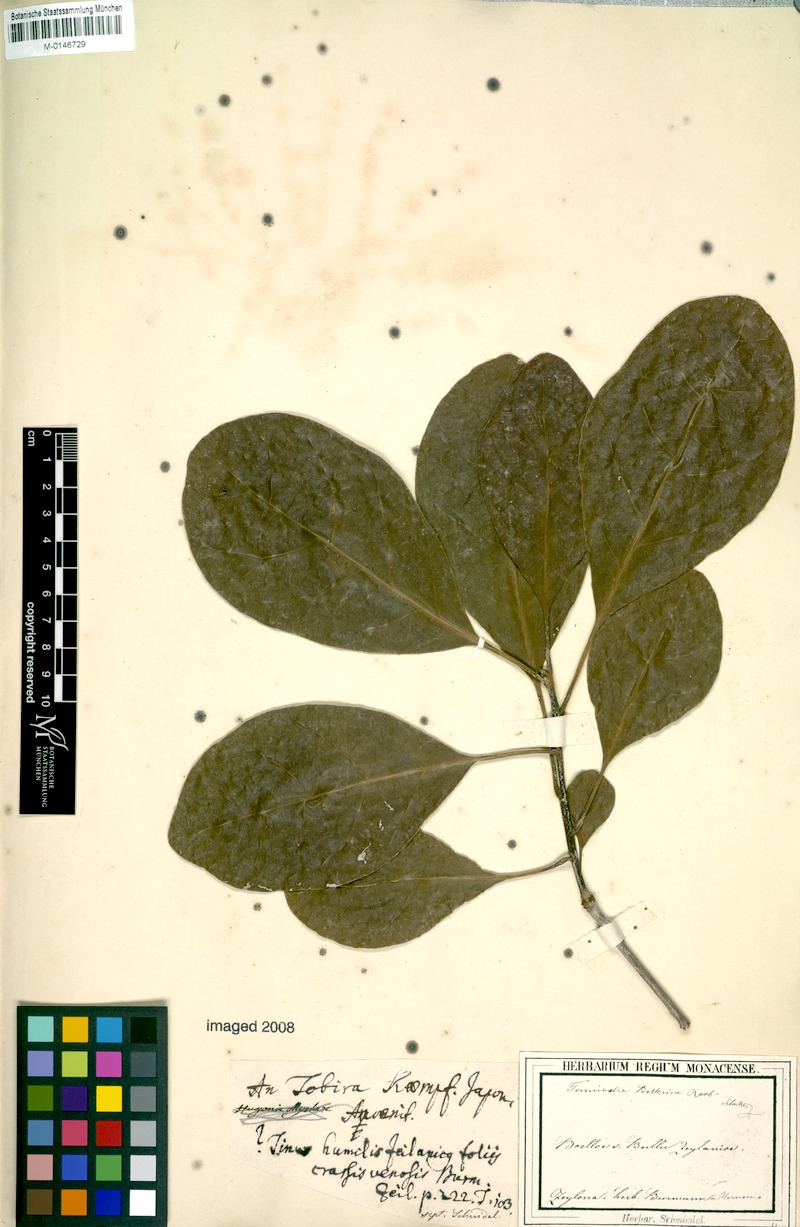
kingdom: Plantae
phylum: Tracheophyta
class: Magnoliopsida
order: Myrtales
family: Combretaceae
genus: Terminalia
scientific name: Terminalia bellirica
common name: Beleric myrobalan
